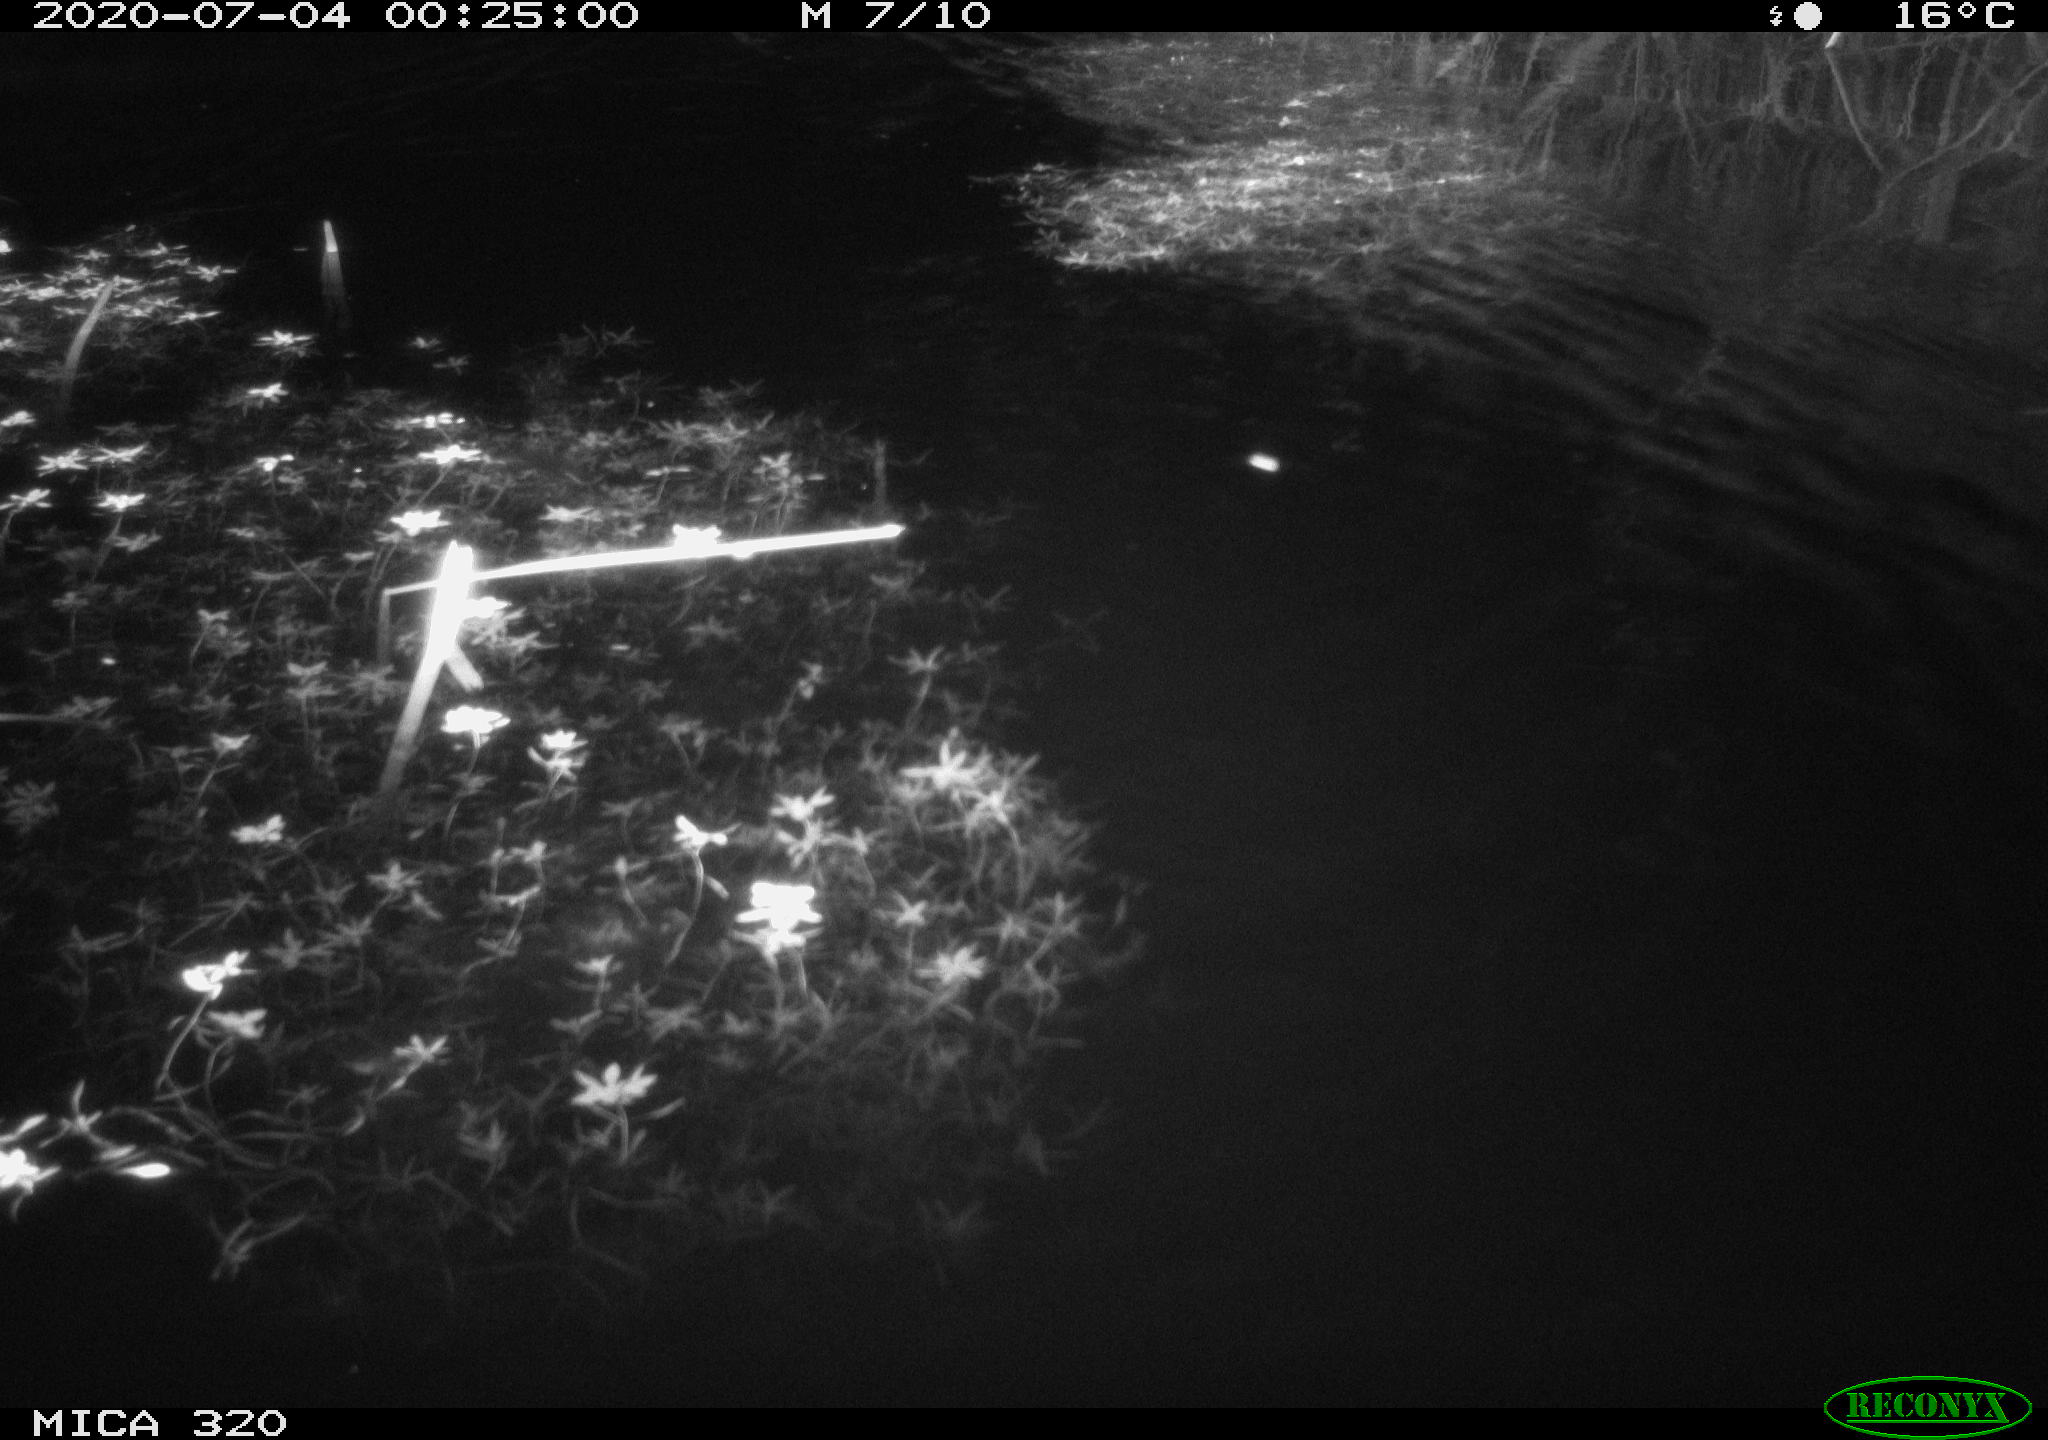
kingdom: Animalia
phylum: Chordata
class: Mammalia
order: Rodentia
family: Muridae
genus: Rattus
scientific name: Rattus norvegicus
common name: Brown rat
